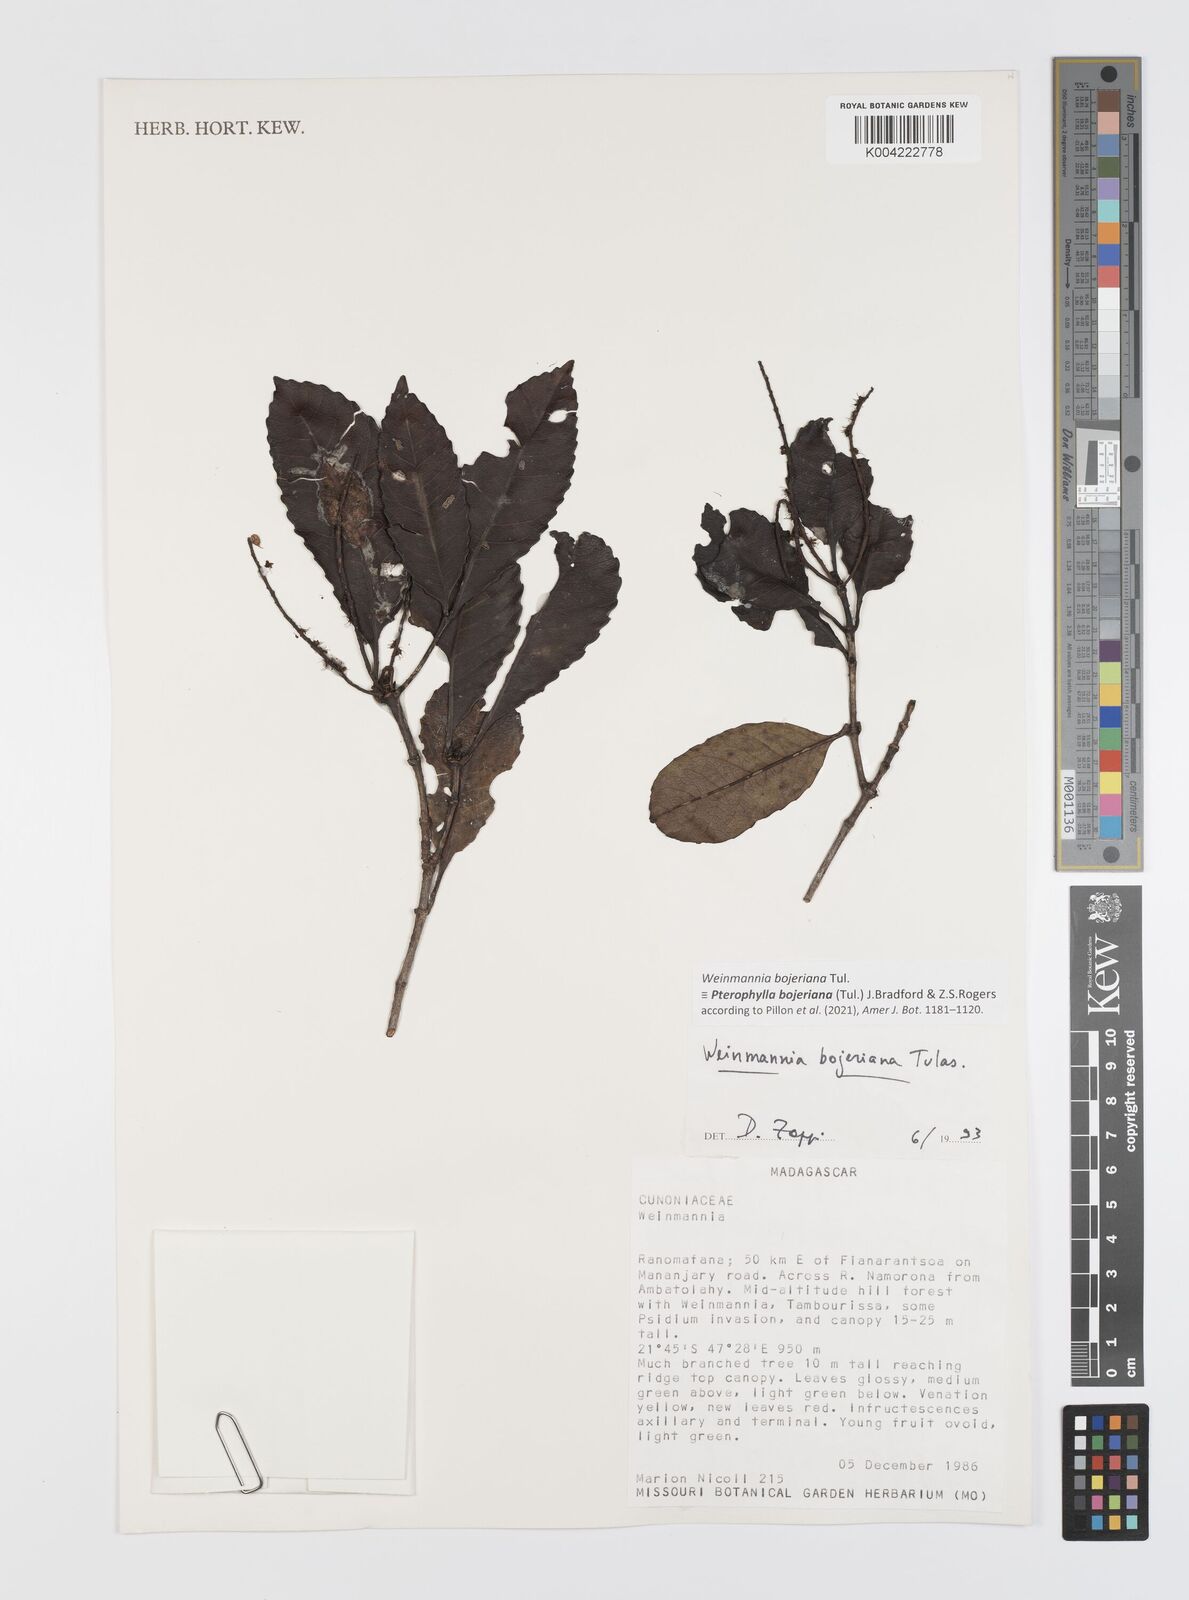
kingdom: Plantae
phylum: Tracheophyta
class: Magnoliopsida
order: Oxalidales
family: Cunoniaceae
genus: Pterophylla
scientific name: Pterophylla
